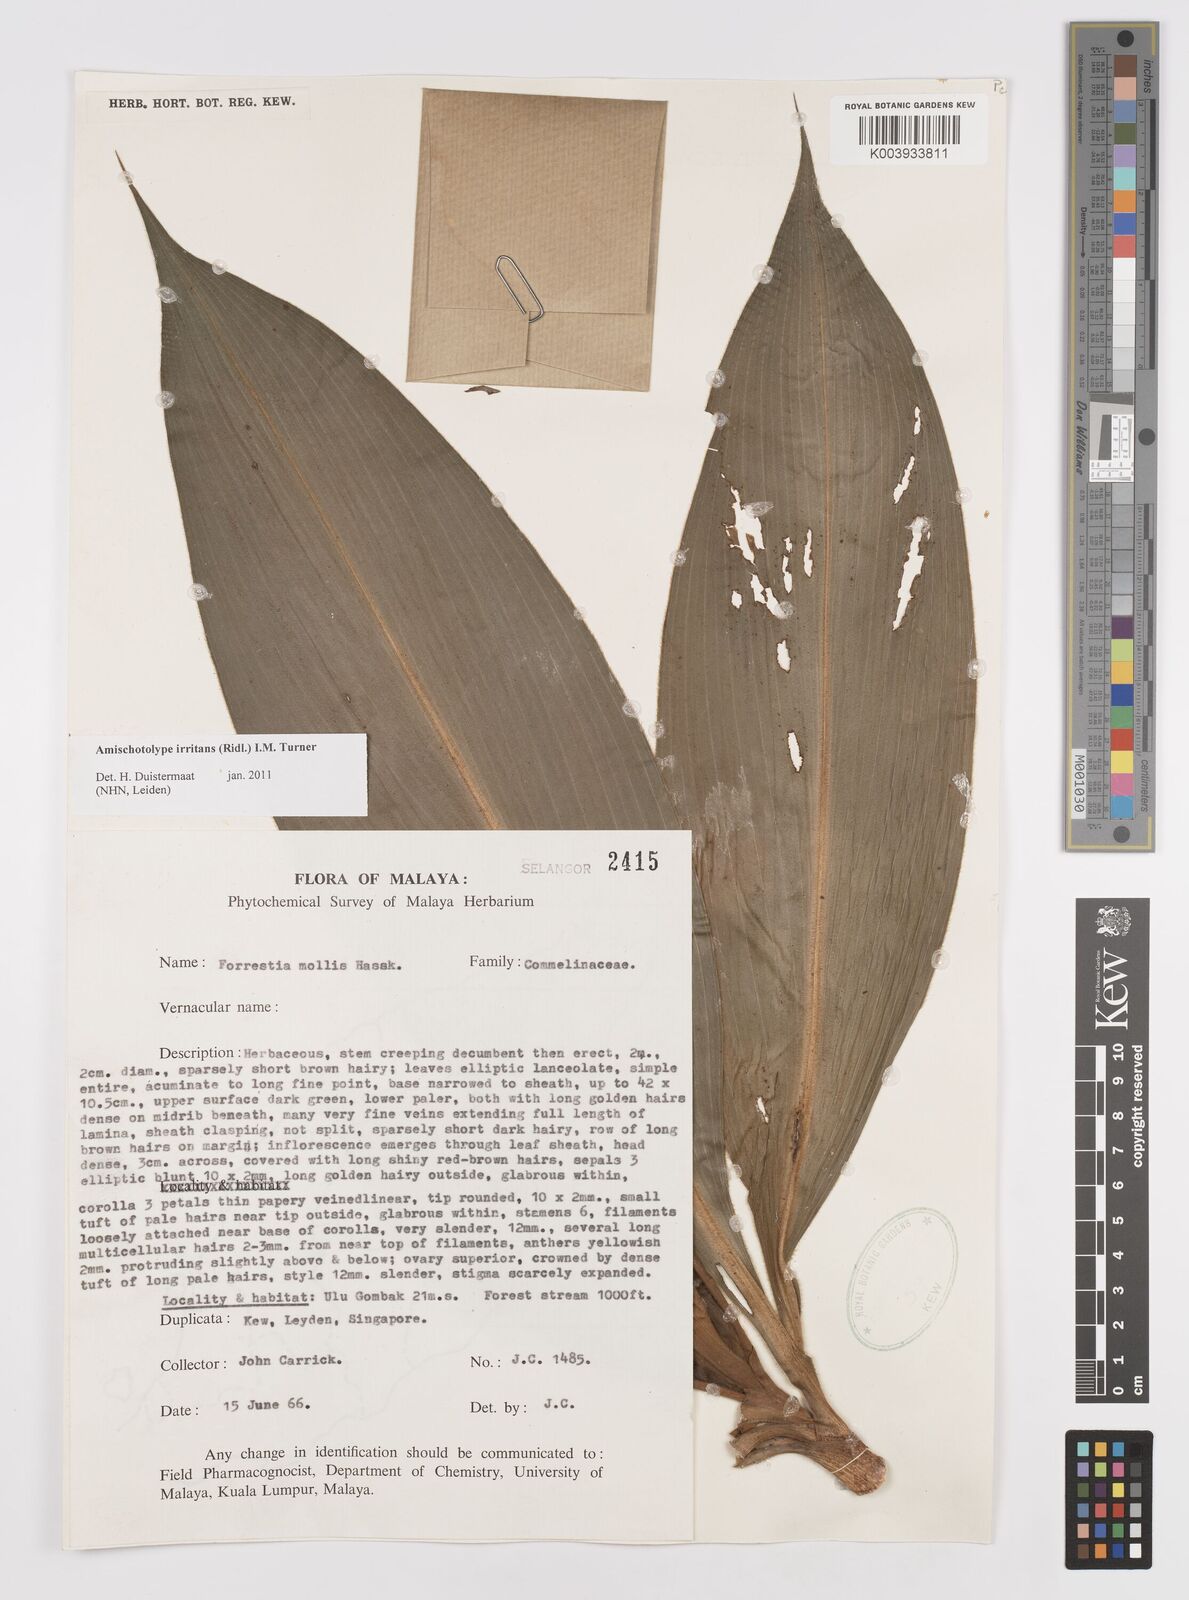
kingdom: Plantae
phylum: Tracheophyta
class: Liliopsida
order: Commelinales
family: Commelinaceae
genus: Amischotolype
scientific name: Amischotolype irritans
